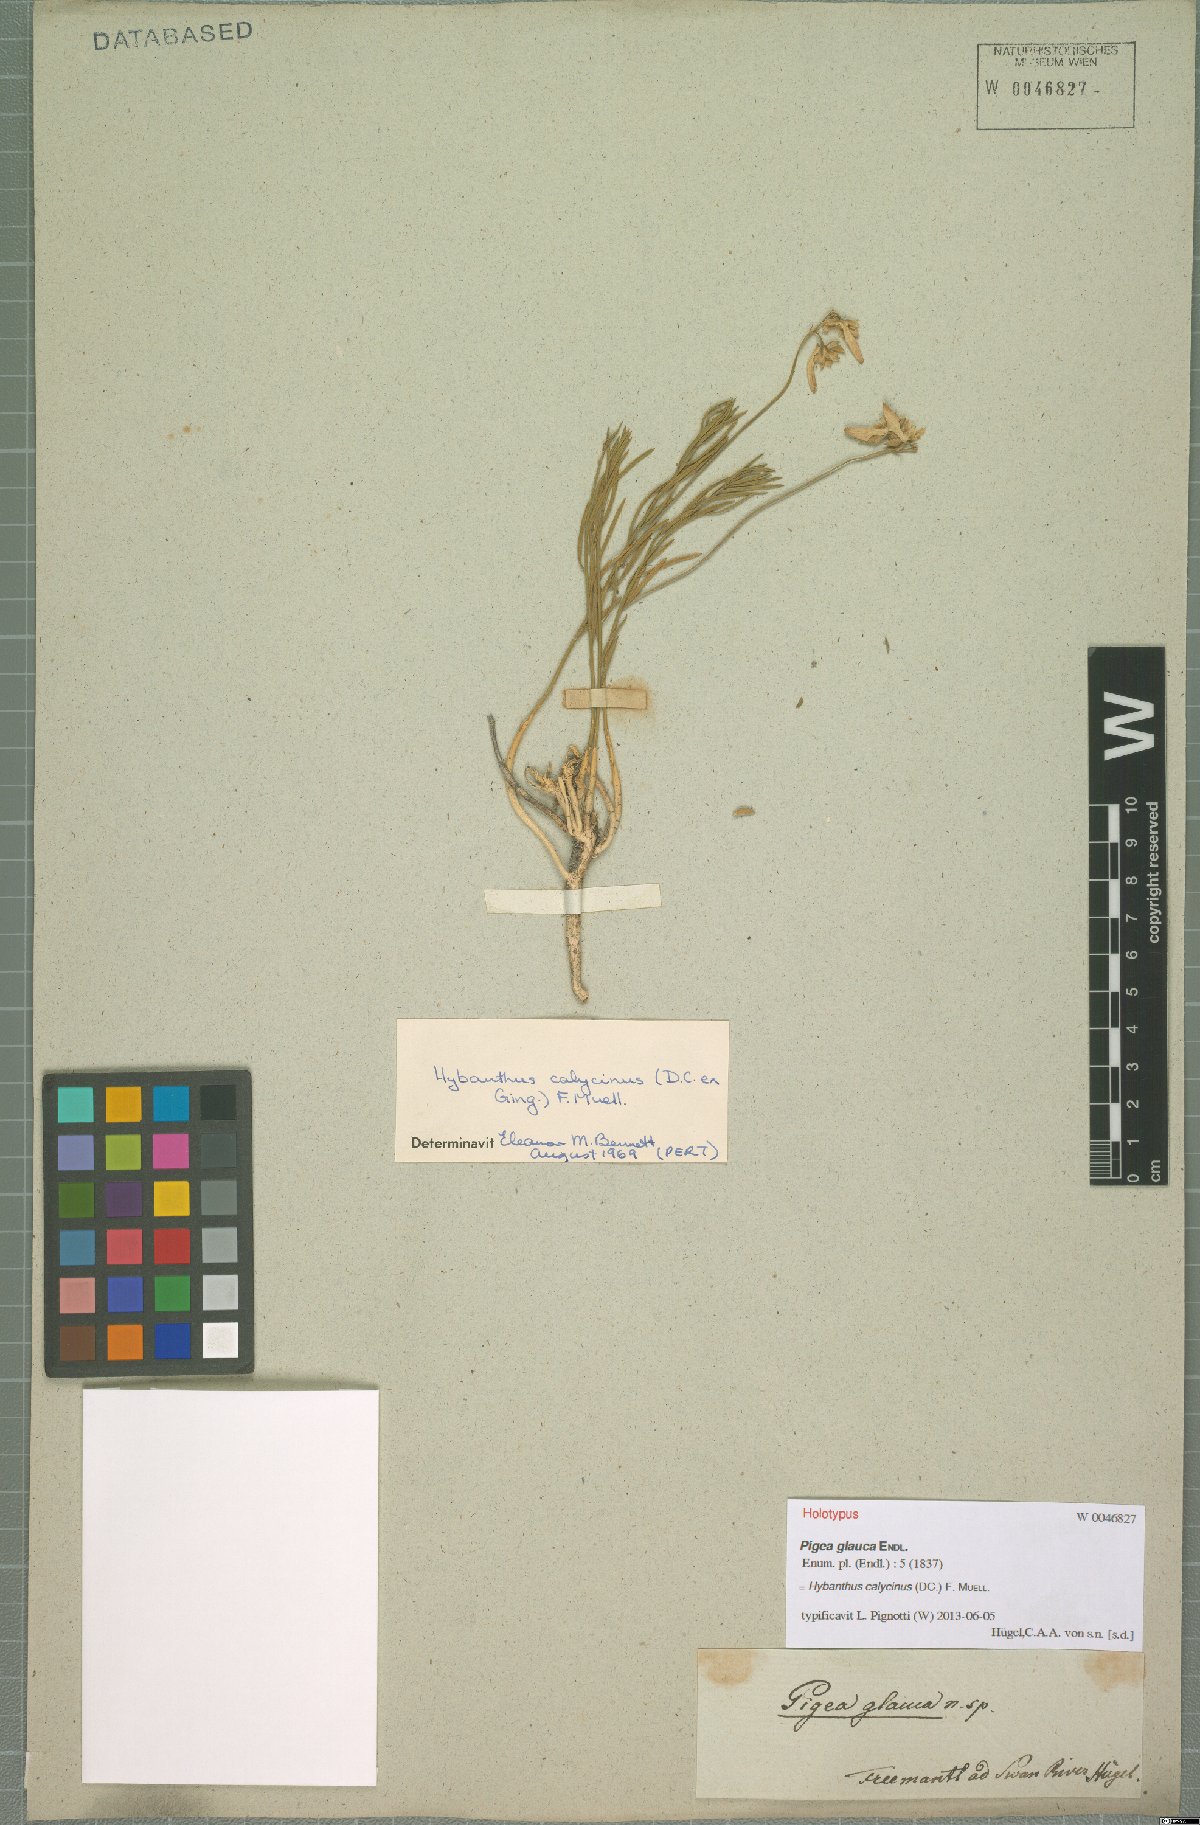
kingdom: Plantae
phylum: Tracheophyta
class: Magnoliopsida
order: Malpighiales
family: Violaceae
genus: Pigea
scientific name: Pigea calycina
